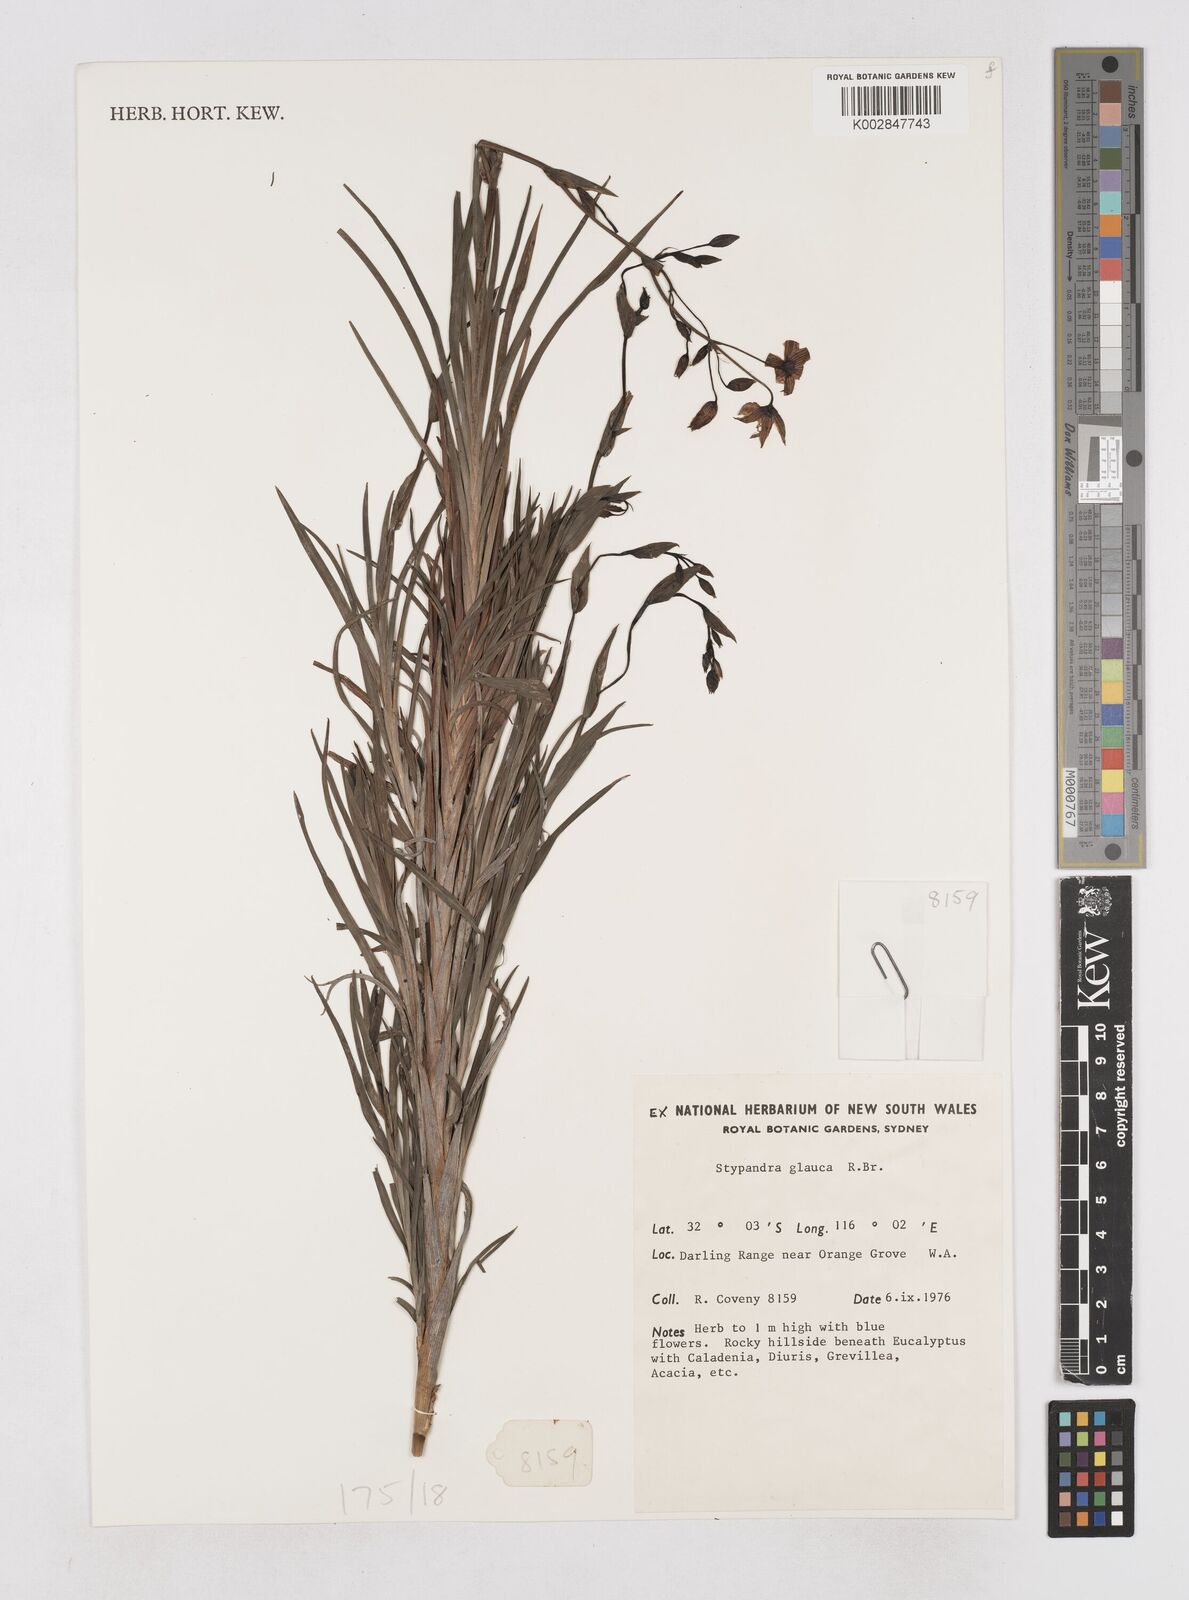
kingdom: Plantae
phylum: Tracheophyta
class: Liliopsida
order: Asparagales
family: Asphodelaceae
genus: Stypandra
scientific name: Stypandra glauca
